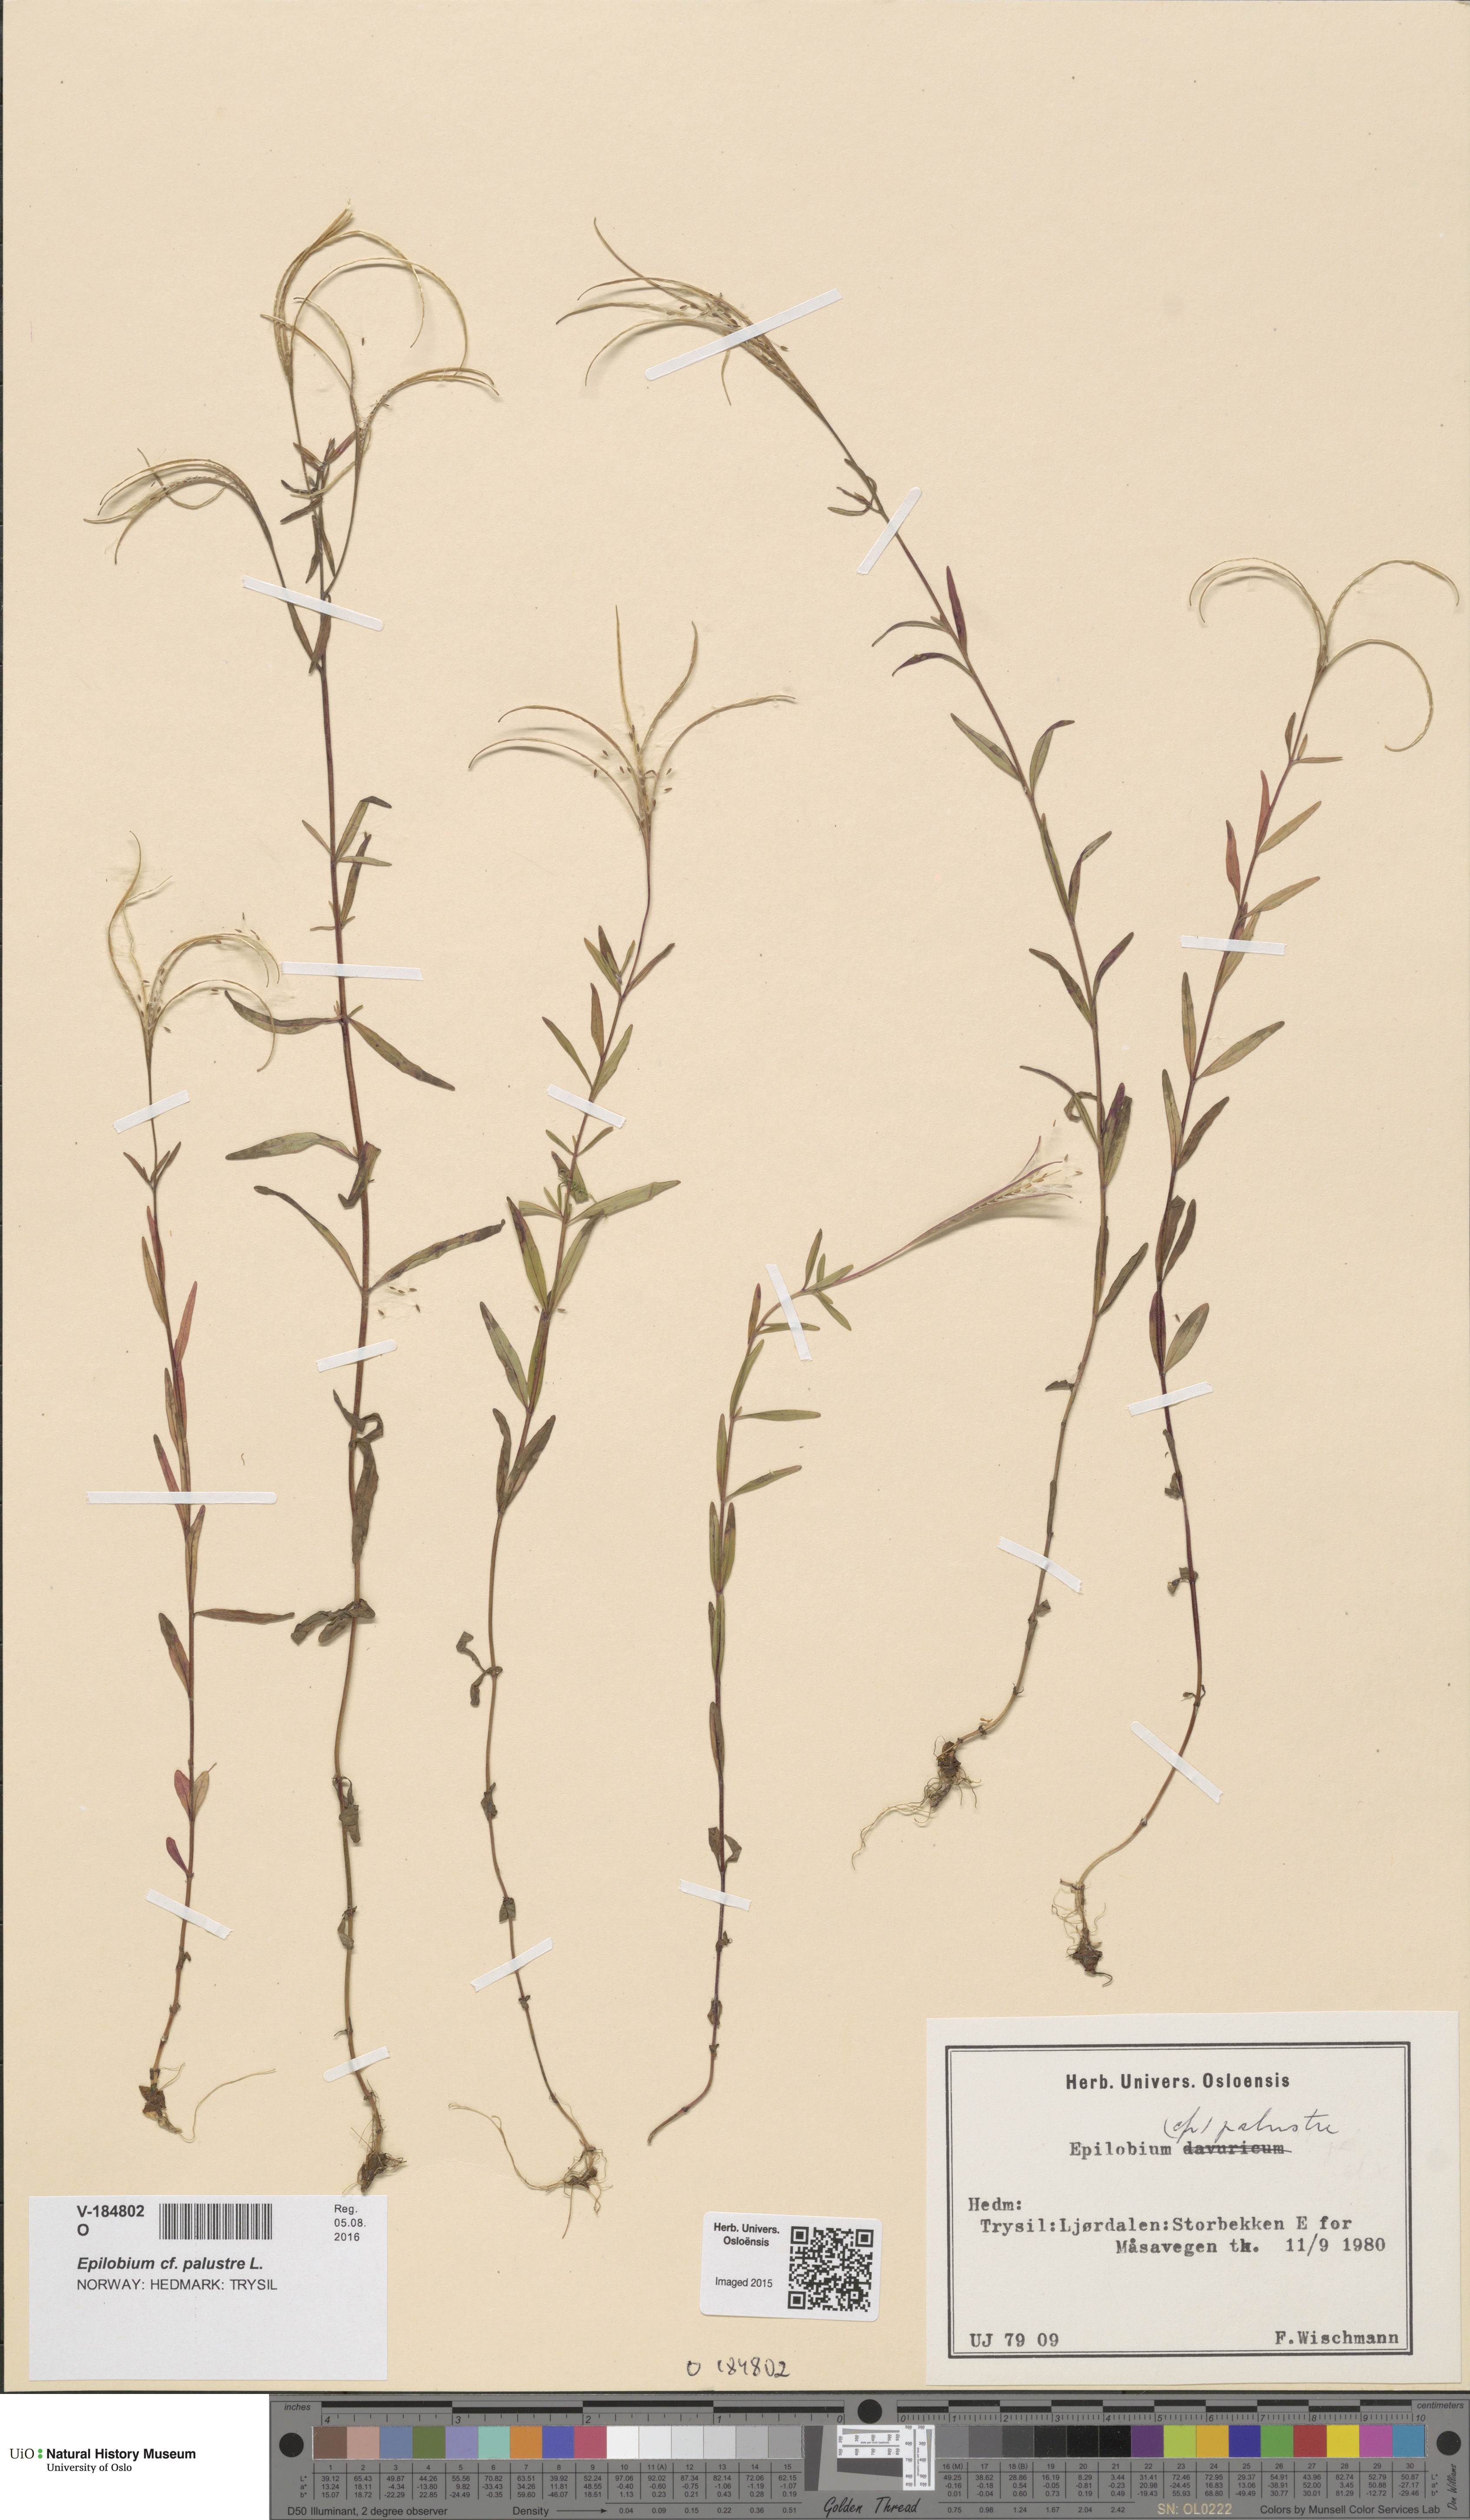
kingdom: Plantae
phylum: Tracheophyta
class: Magnoliopsida
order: Myrtales
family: Onagraceae
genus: Epilobium
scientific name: Epilobium palustre
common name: Marsh willowherb
